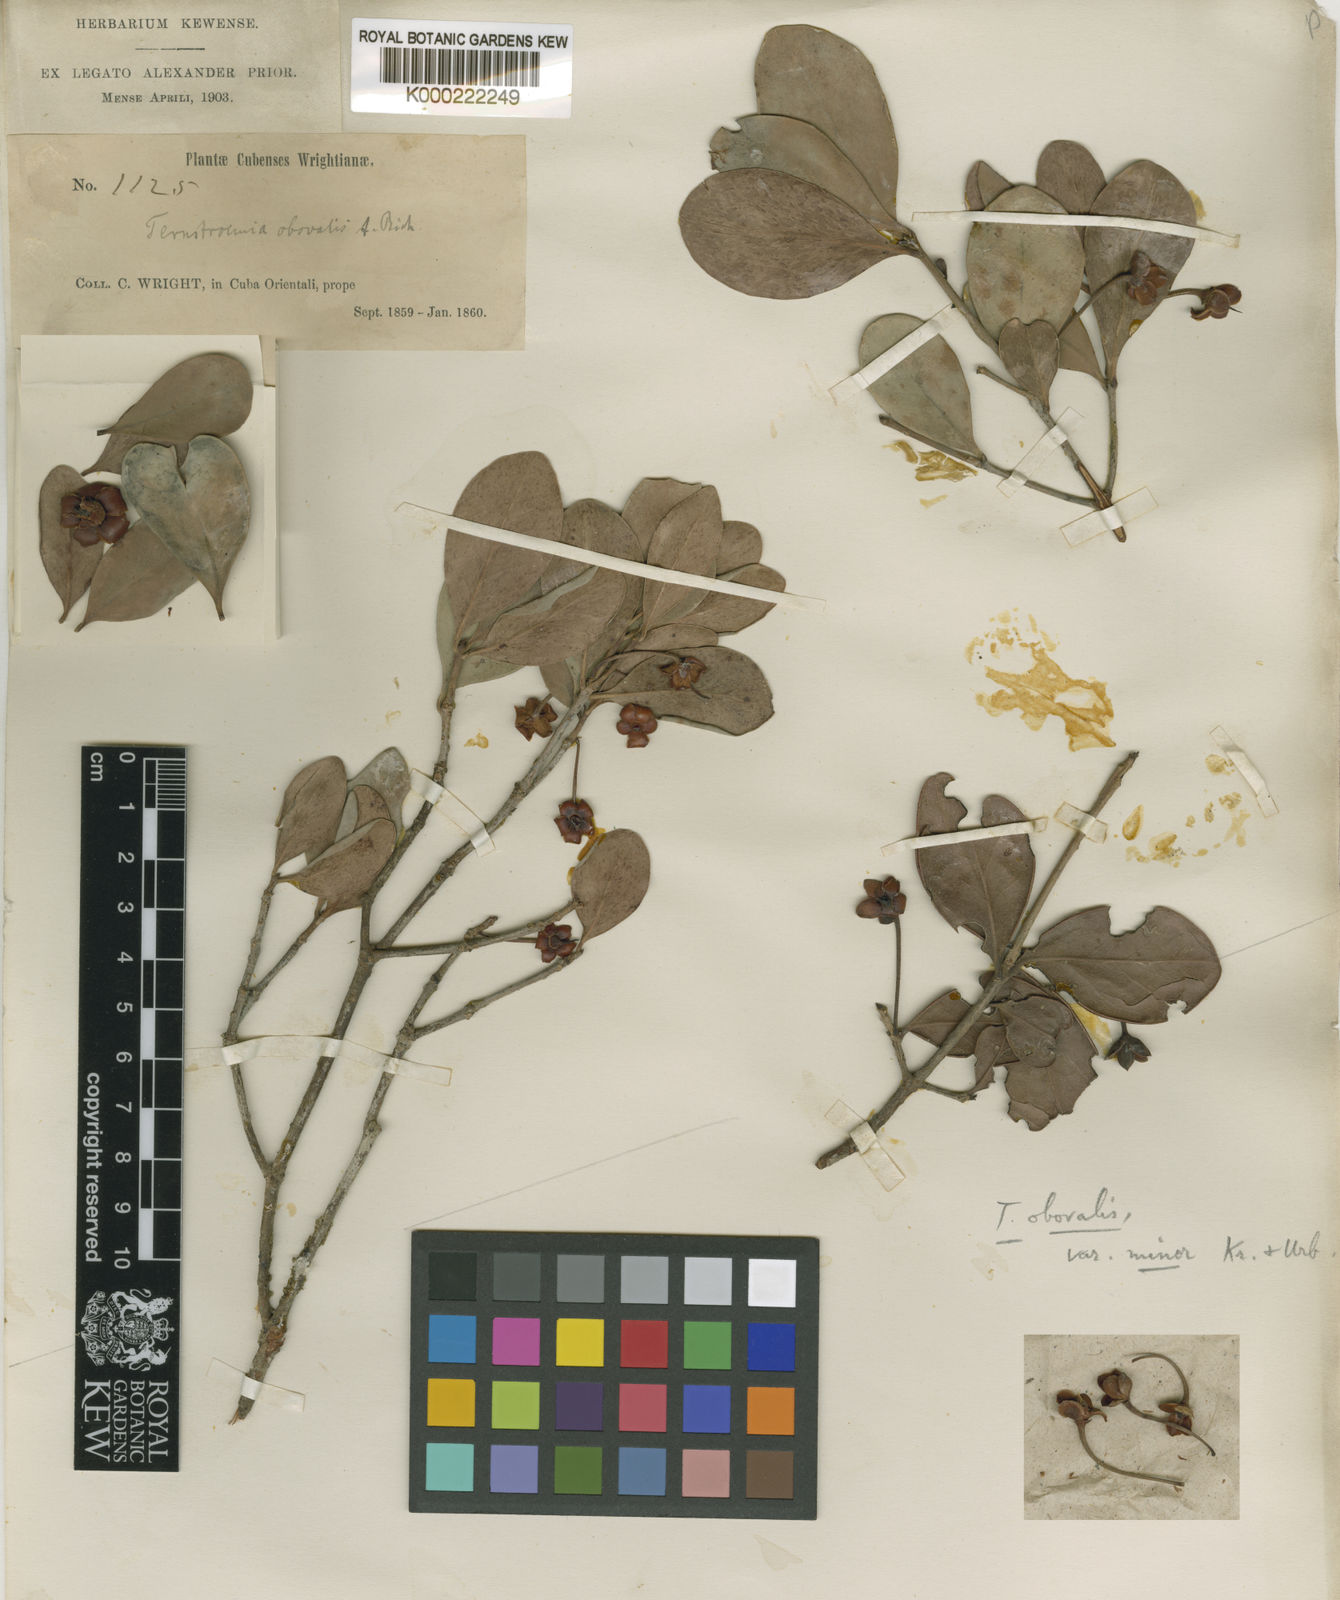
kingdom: Plantae
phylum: Tracheophyta
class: Magnoliopsida
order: Ericales
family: Pentaphylacaceae
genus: Ternstroemia
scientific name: Ternstroemia peduncularis
